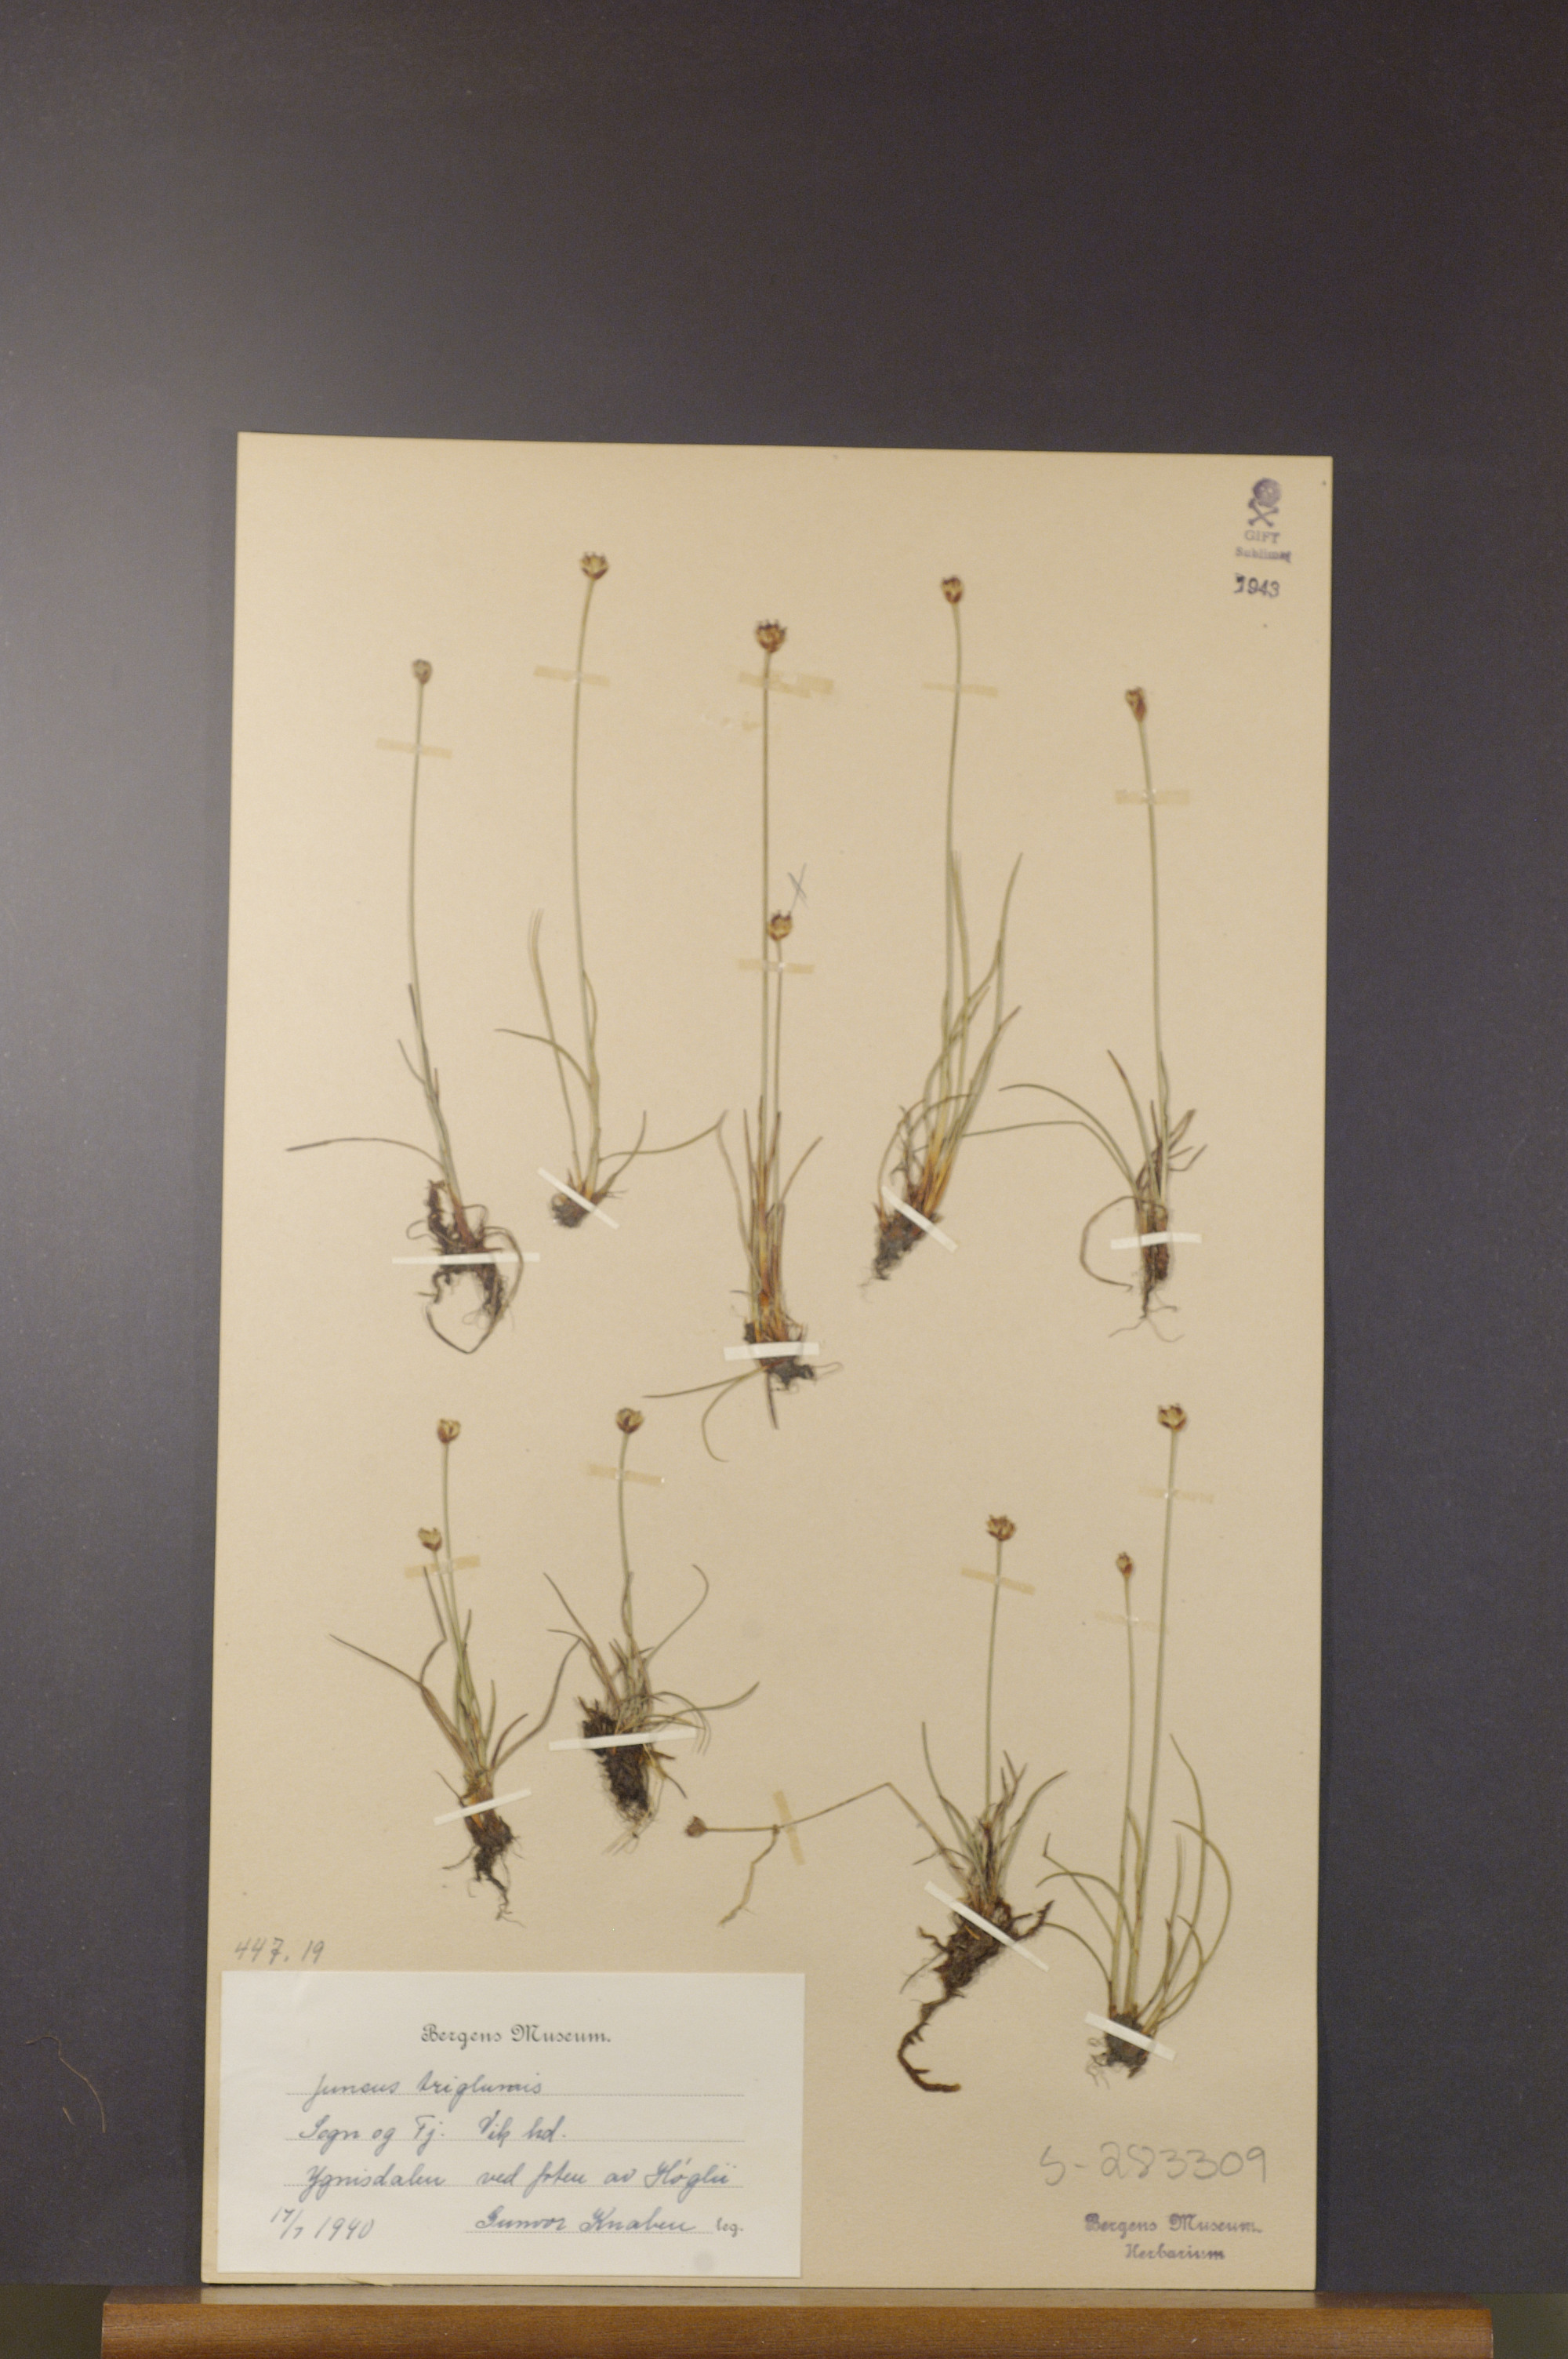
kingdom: Plantae
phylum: Tracheophyta
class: Liliopsida
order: Poales
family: Juncaceae
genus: Juncus
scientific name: Juncus triglumis
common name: Three-flowered rush
